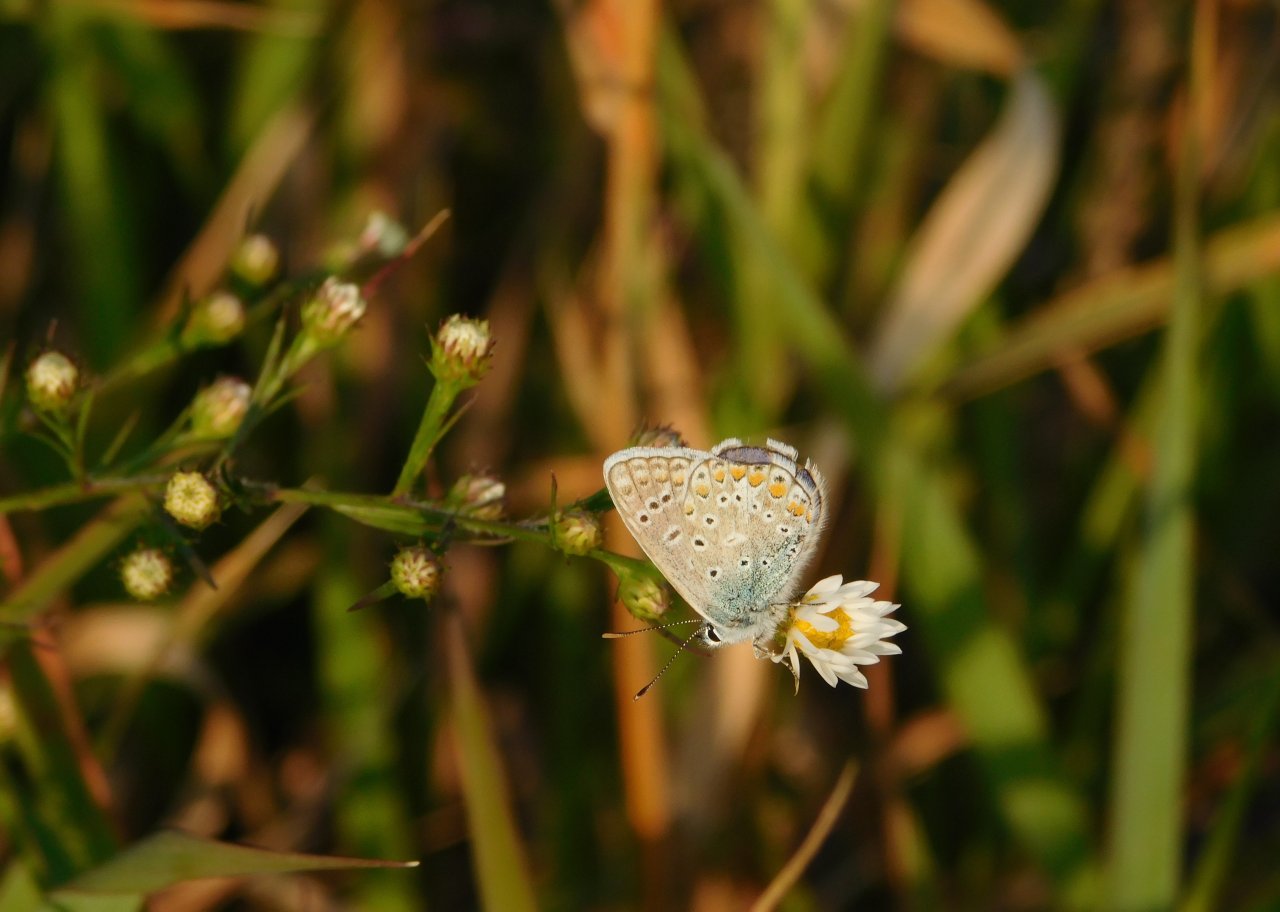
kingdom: Animalia
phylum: Arthropoda
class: Insecta
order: Lepidoptera
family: Lycaenidae
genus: Polyommatus
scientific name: Polyommatus icarus
